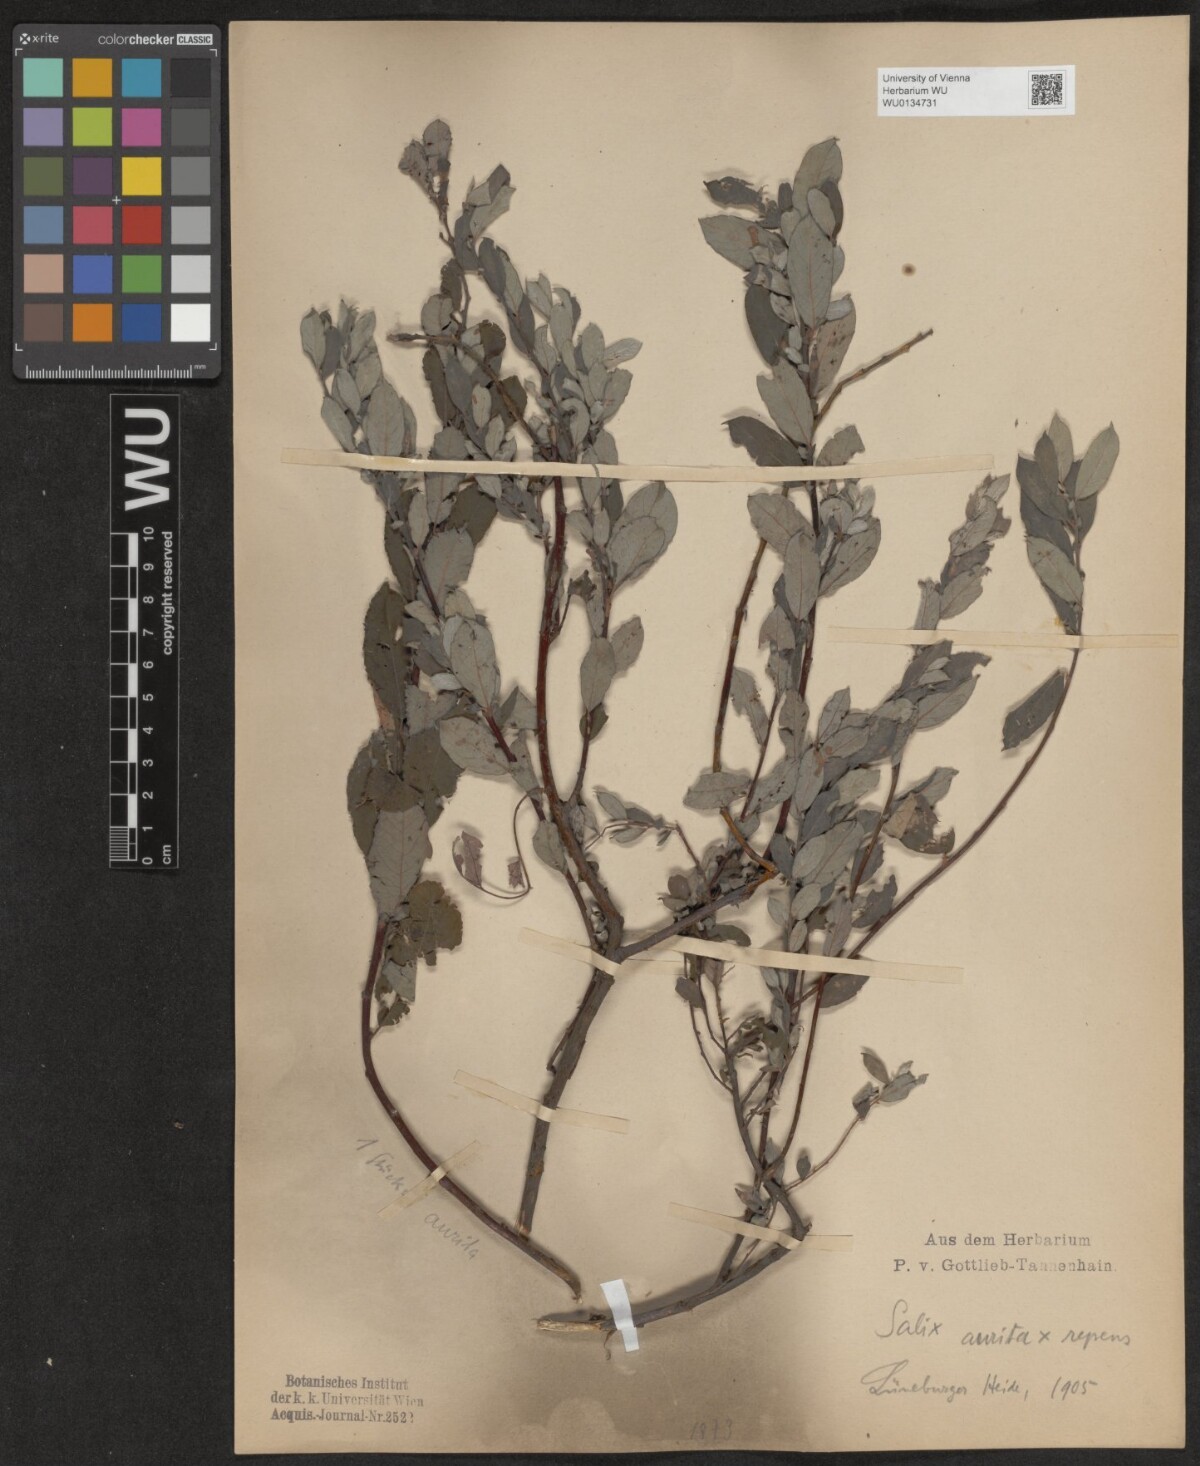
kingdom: Plantae
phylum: Tracheophyta
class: Magnoliopsida
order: Malpighiales
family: Salicaceae
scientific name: Salicaceae
